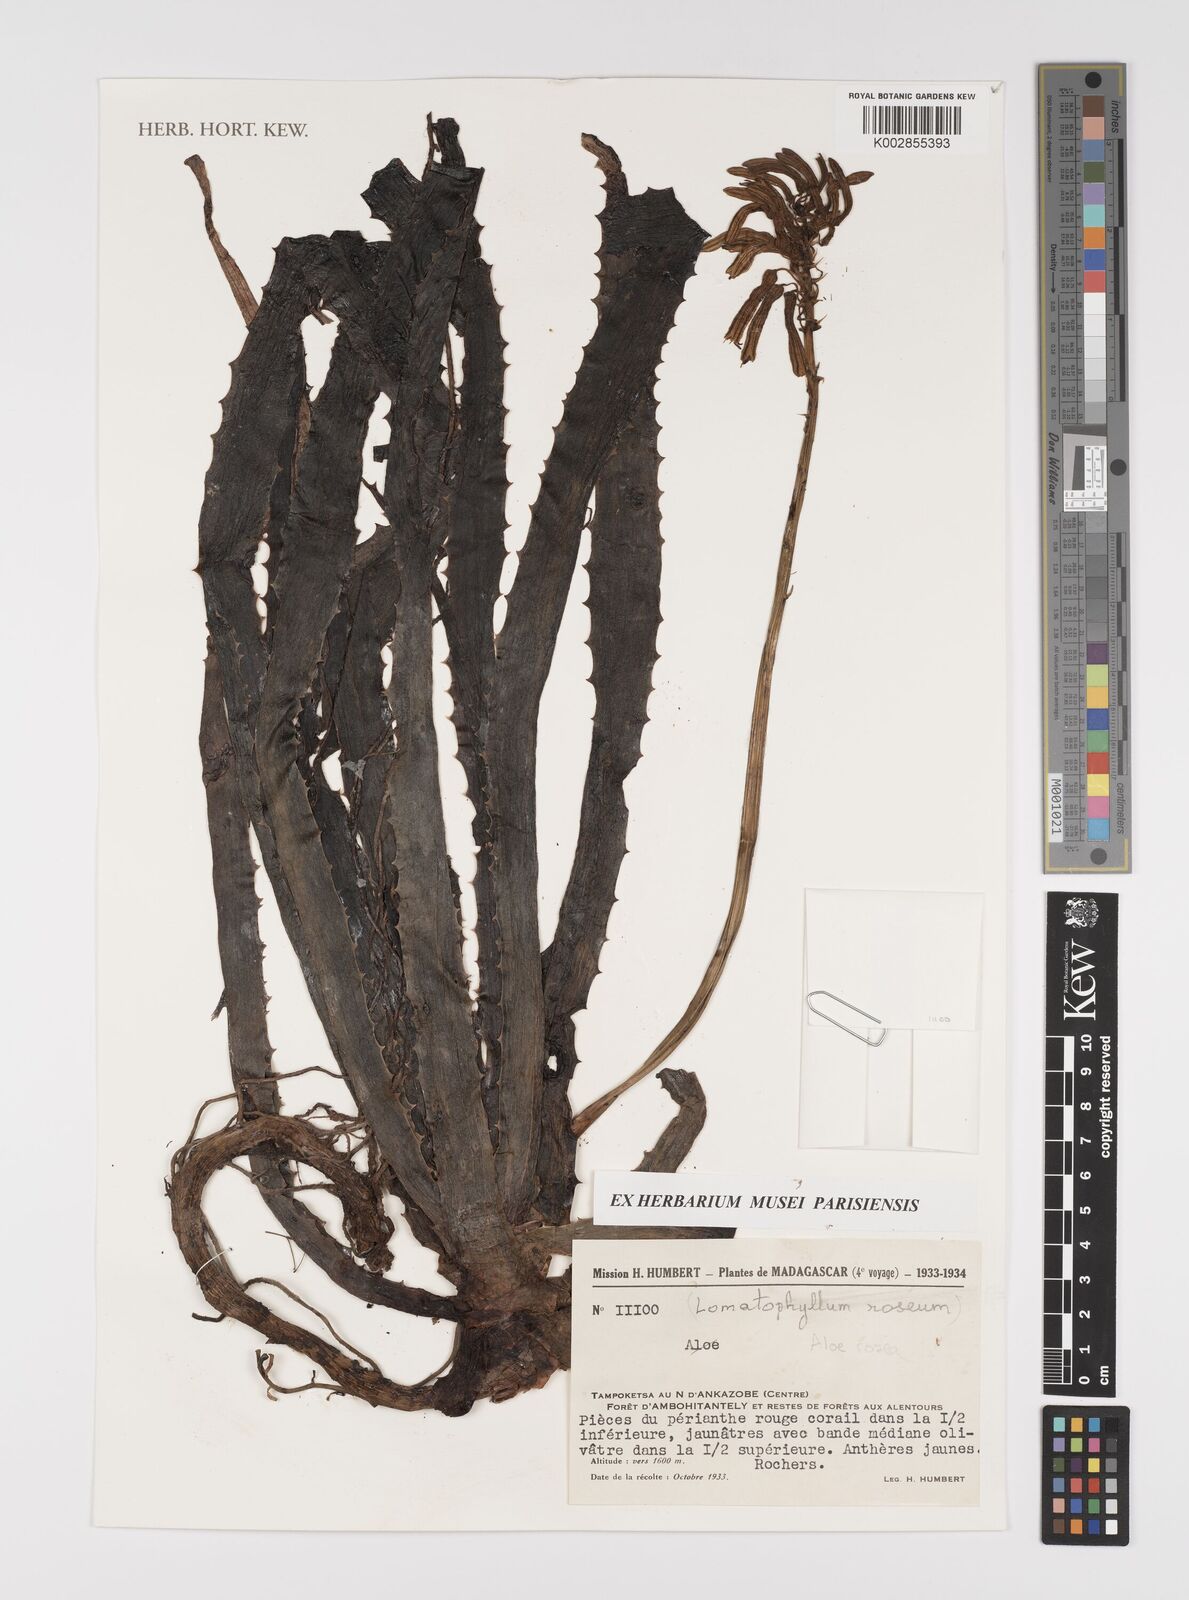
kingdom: Plantae
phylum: Tracheophyta
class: Liliopsida
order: Asparagales
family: Asphodelaceae
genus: Aloe
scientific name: Aloe rosea
